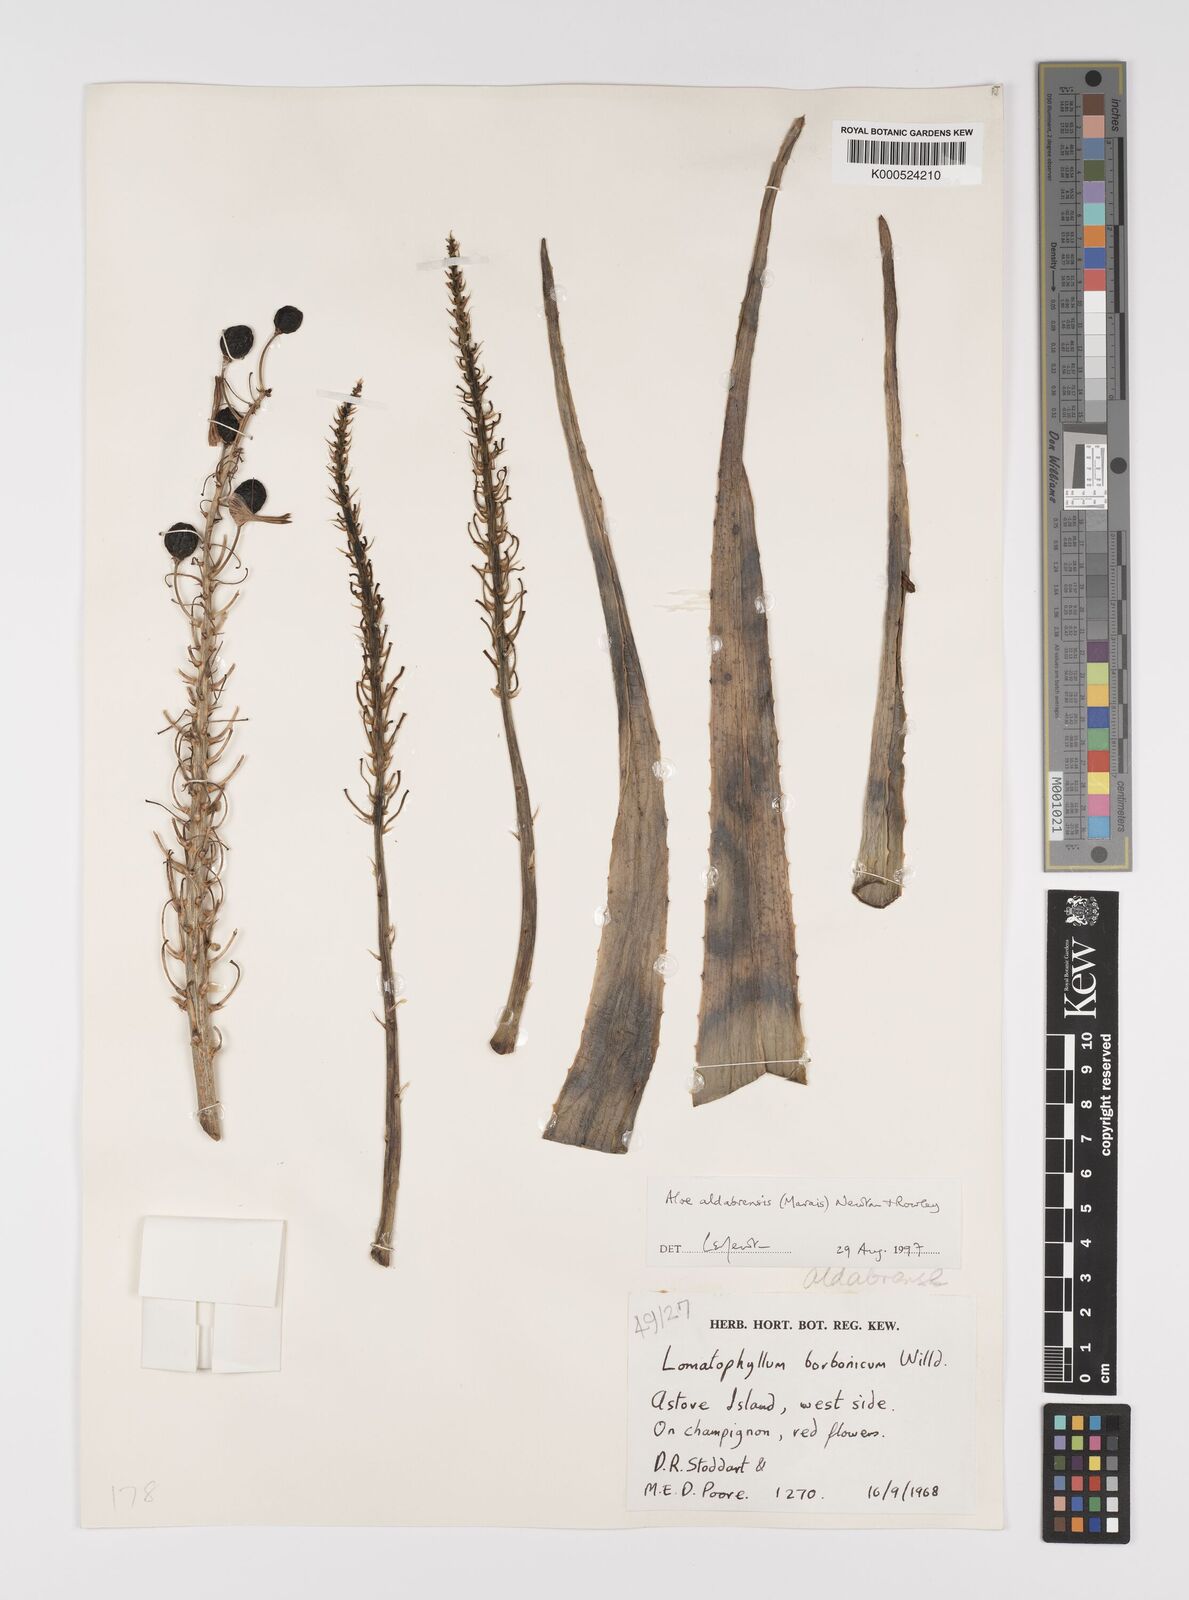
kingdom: Plantae
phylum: Tracheophyta
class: Liliopsida
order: Asparagales
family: Asphodelaceae
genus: Aloe
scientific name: Aloe aldabrensis
